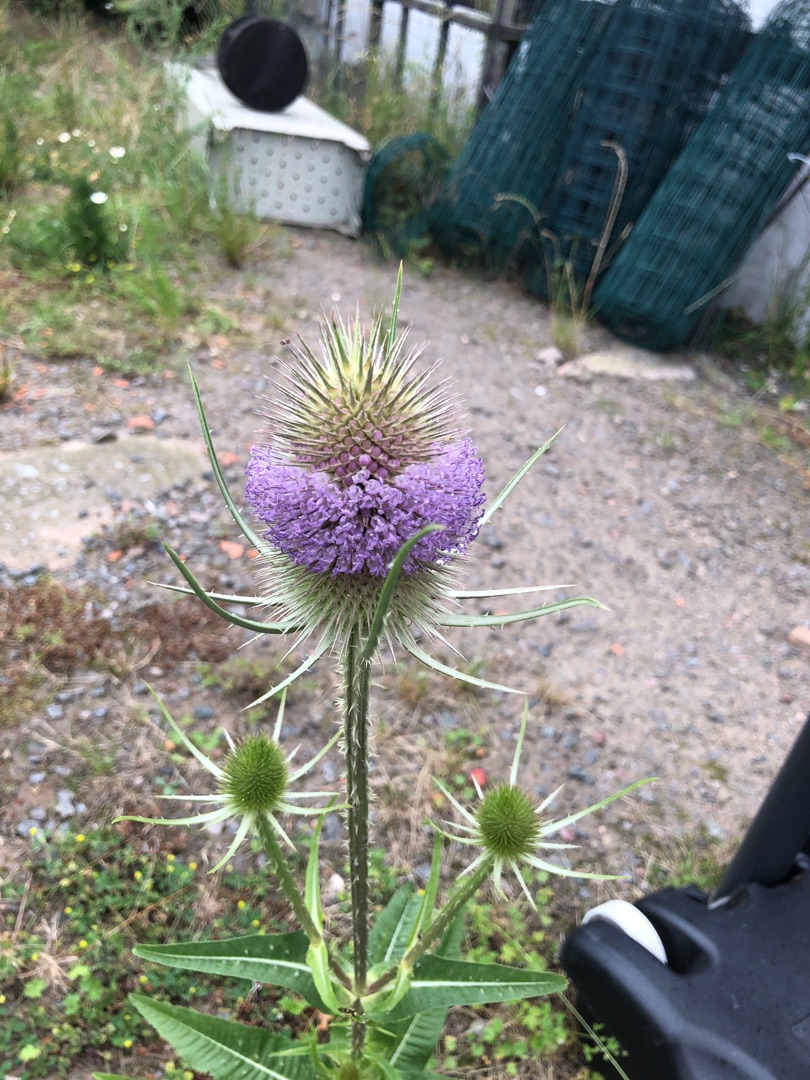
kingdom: Plantae
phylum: Tracheophyta
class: Magnoliopsida
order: Dipsacales
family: Caprifoliaceae
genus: Dipsacus
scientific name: Dipsacus fullonum
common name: Gærde-kartebolle
